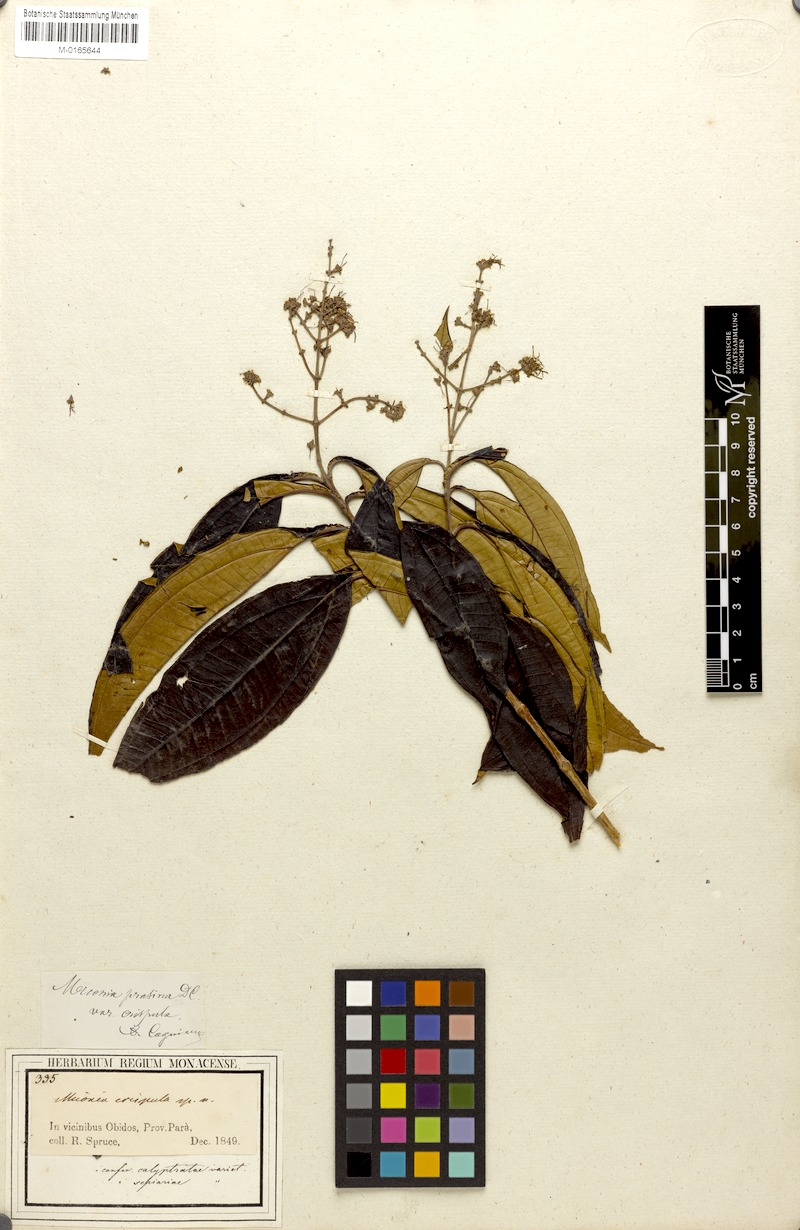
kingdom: Plantae
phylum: Tracheophyta
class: Magnoliopsida
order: Myrtales
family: Melastomataceae
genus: Miconia
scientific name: Miconia prasina
